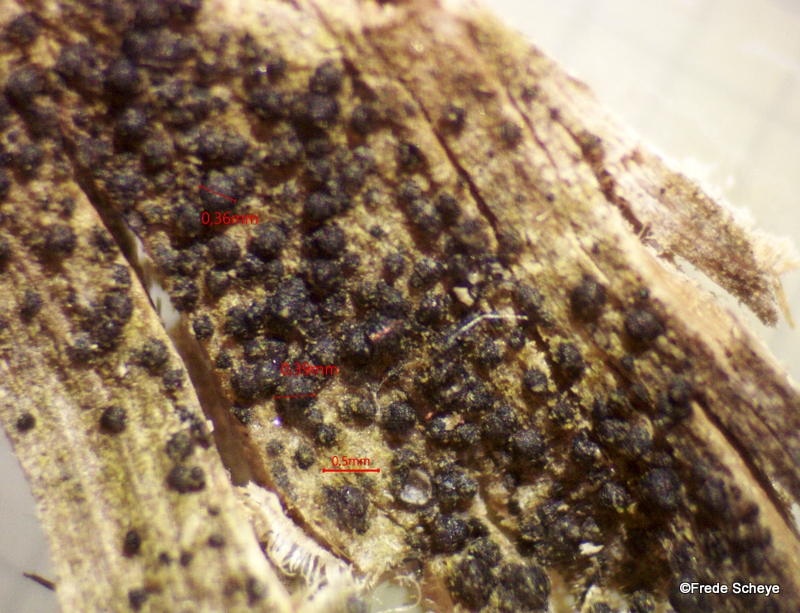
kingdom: Fungi
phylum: Ascomycota
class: Dothideomycetes
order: Pleosporales
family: Melanommataceae
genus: Melanomma
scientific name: Melanomma pulvis-pyrius
